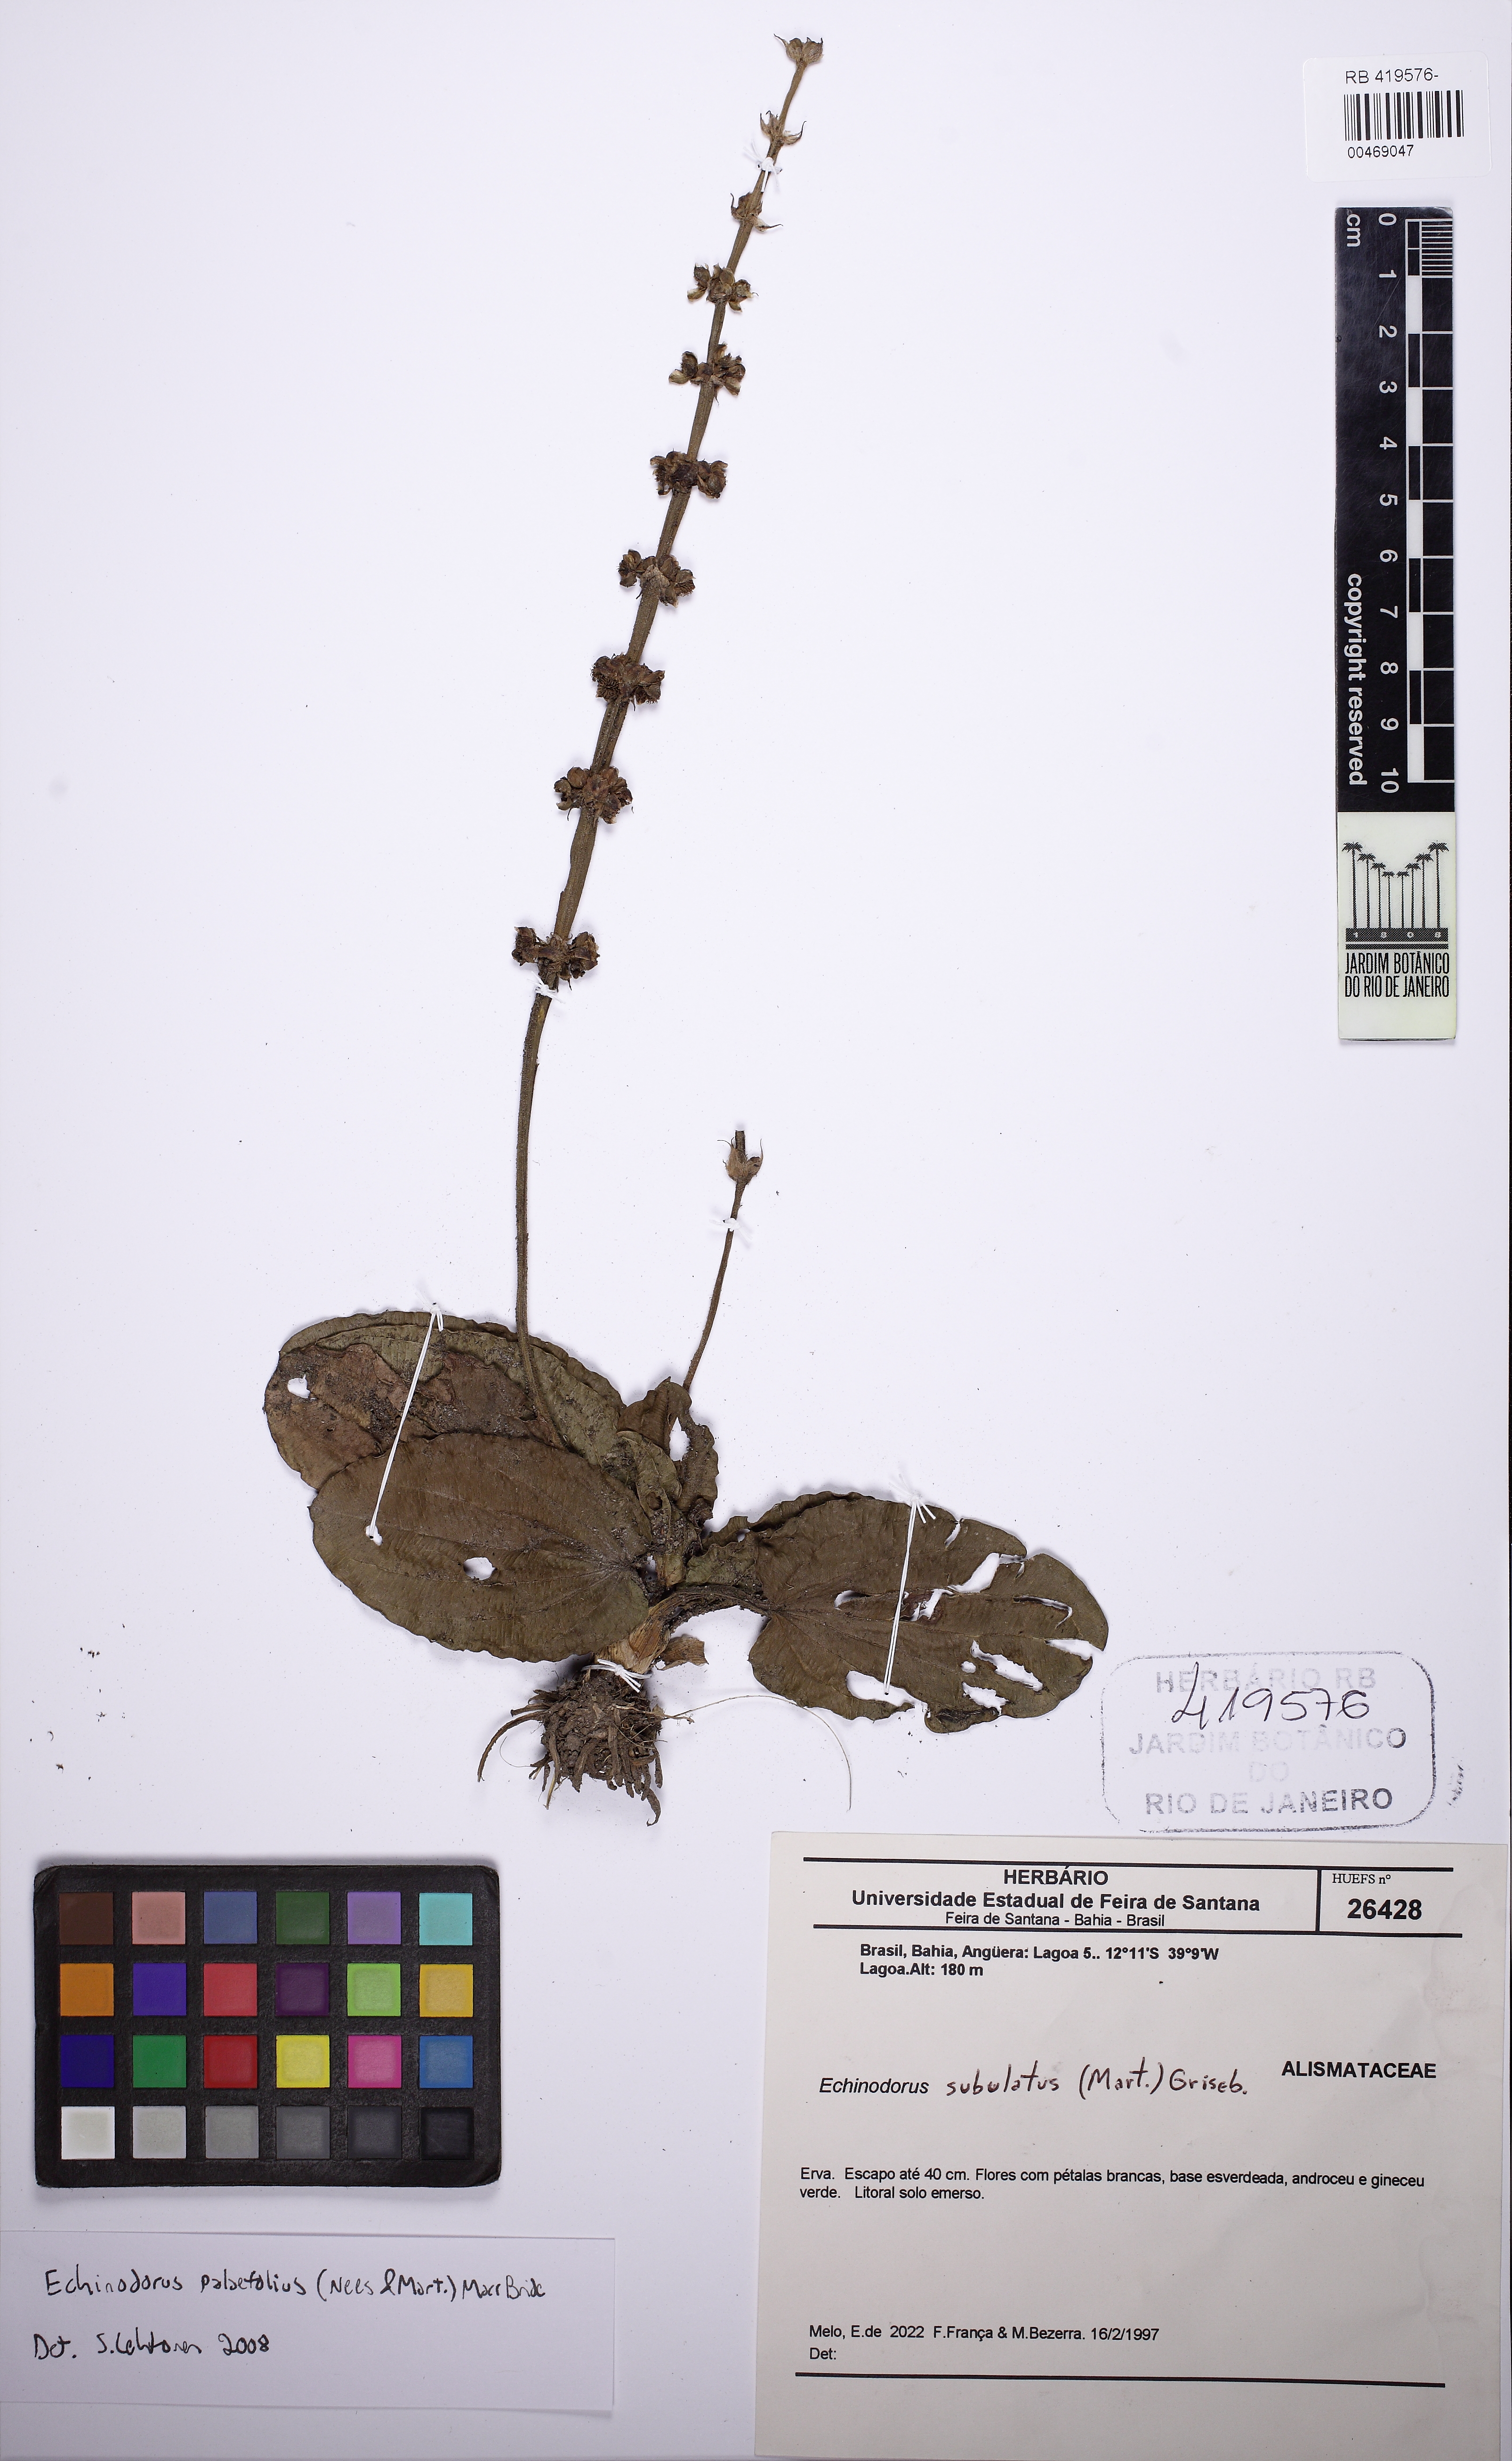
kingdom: Plantae
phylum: Tracheophyta
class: Liliopsida
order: Alismatales
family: Alismataceae
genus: Echinodorus
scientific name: Echinodorus palaefolius
